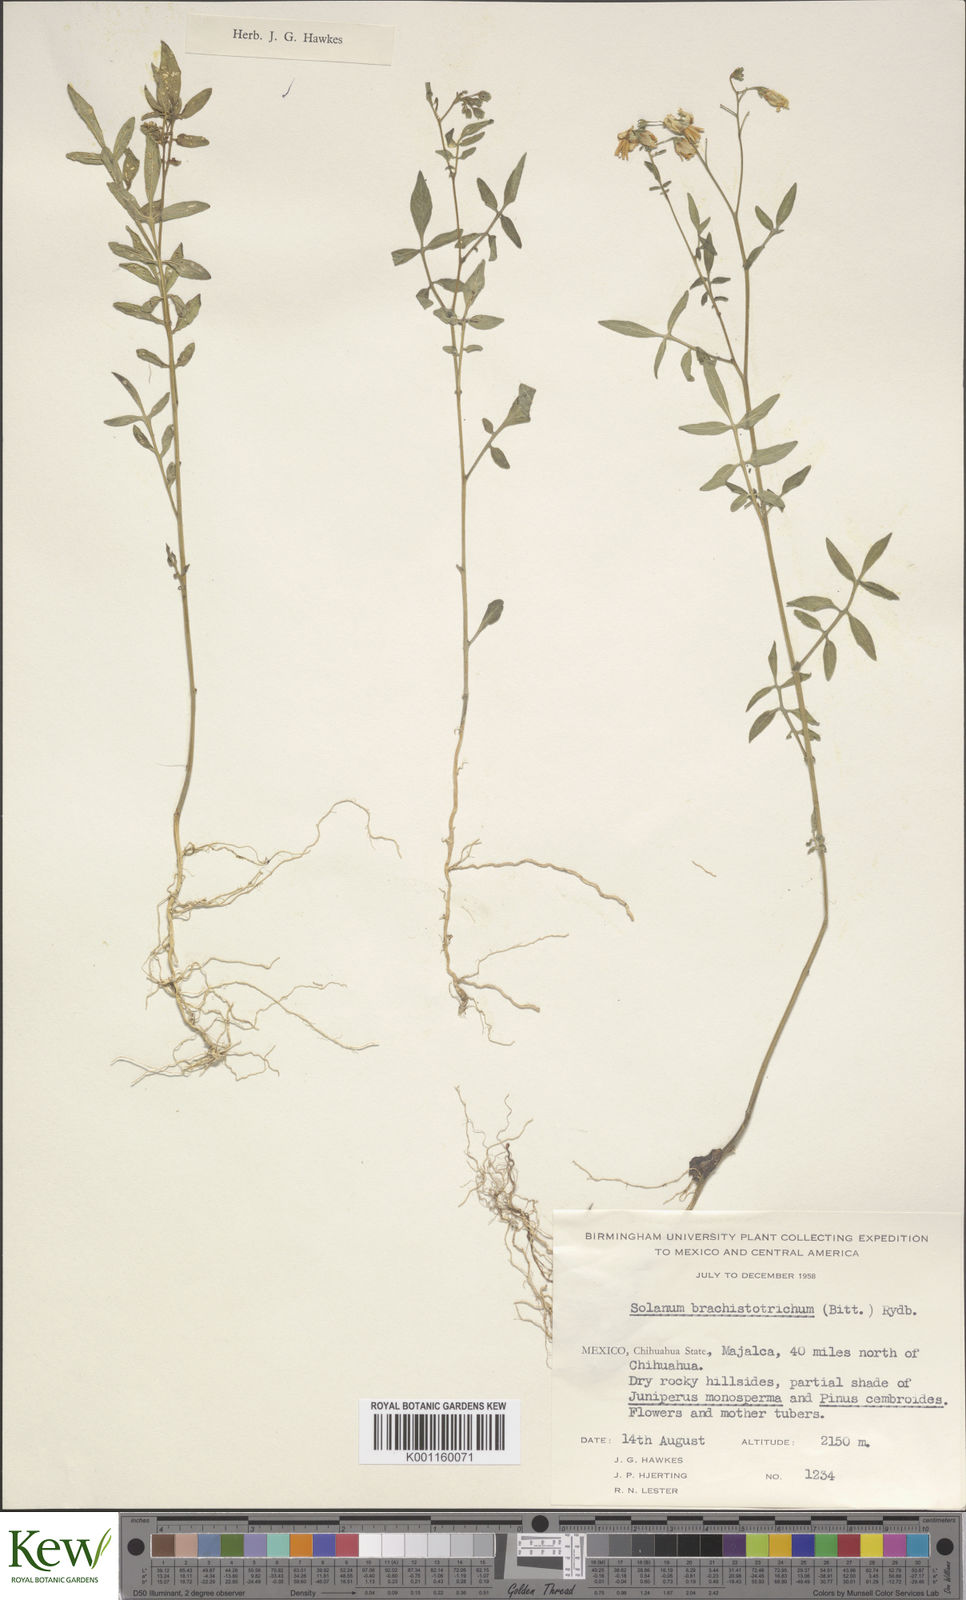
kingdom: Plantae
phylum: Tracheophyta
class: Magnoliopsida
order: Solanales
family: Solanaceae
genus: Solanum
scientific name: Solanum
